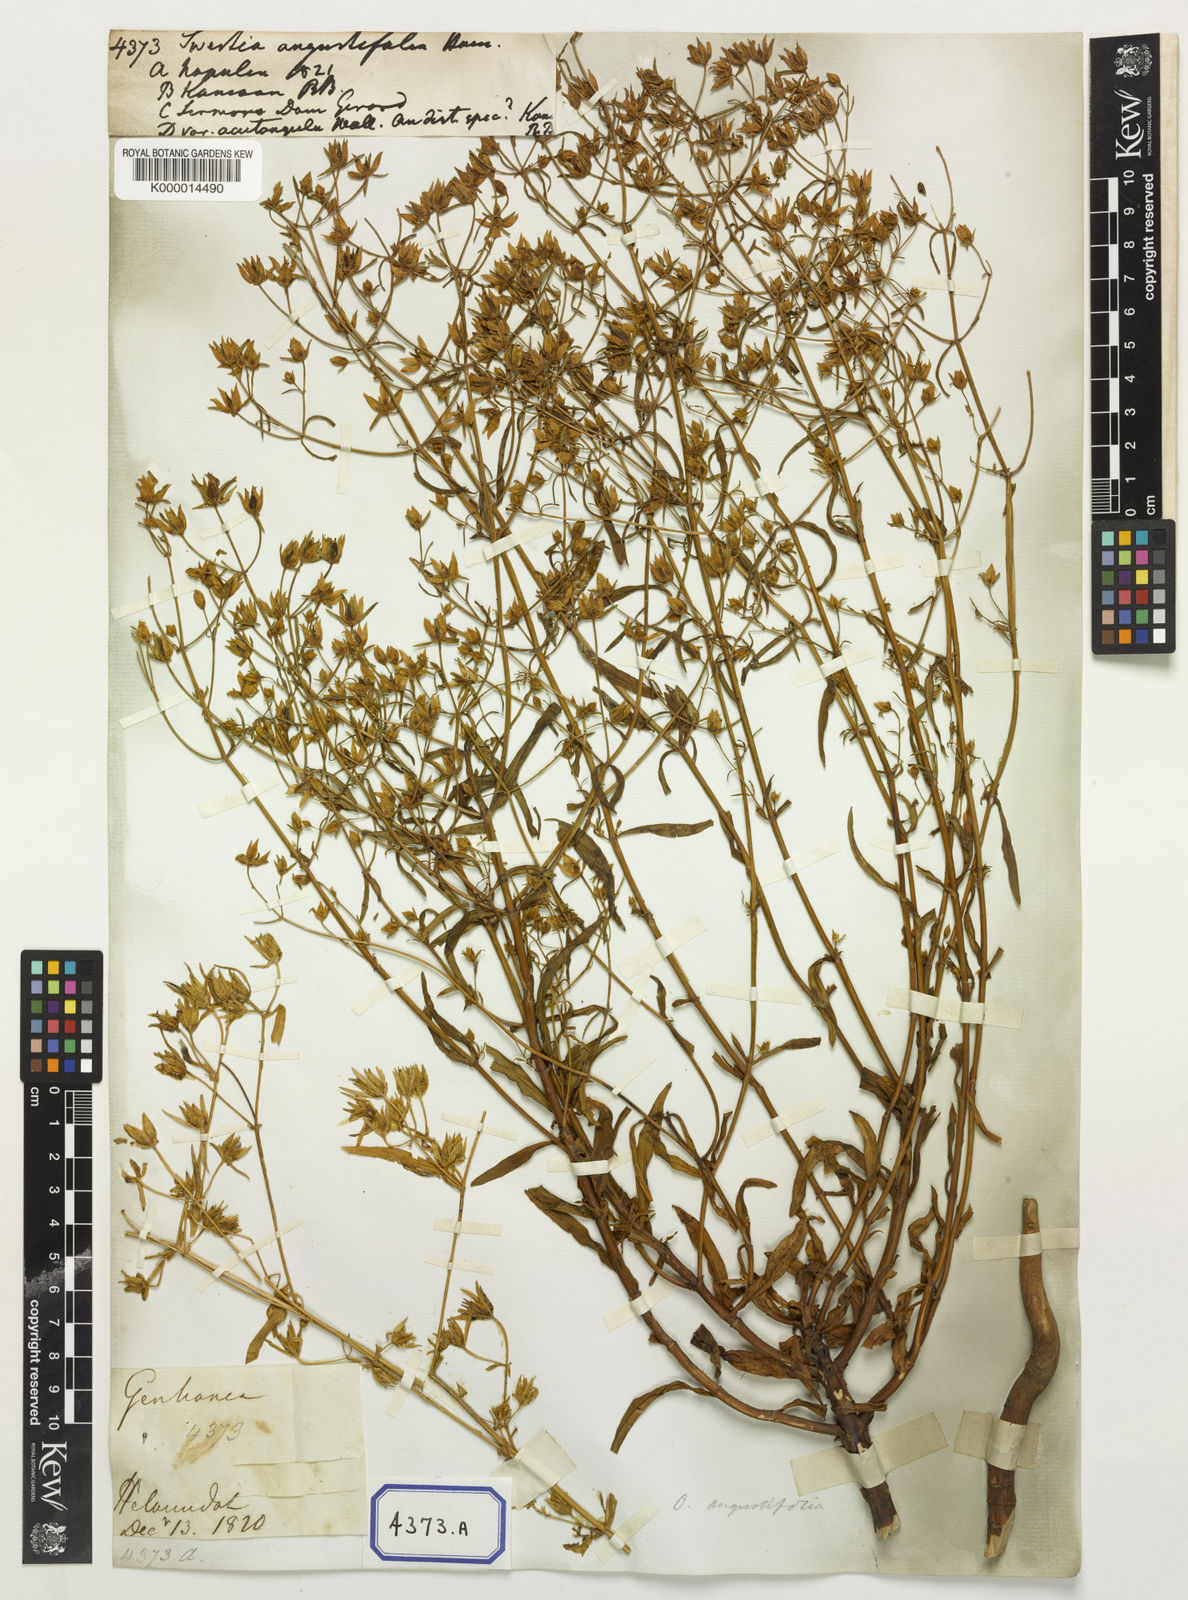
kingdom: Plantae
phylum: Tracheophyta
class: Magnoliopsida
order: Gentianales
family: Gentianaceae
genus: Swertia
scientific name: Swertia angustifolia
